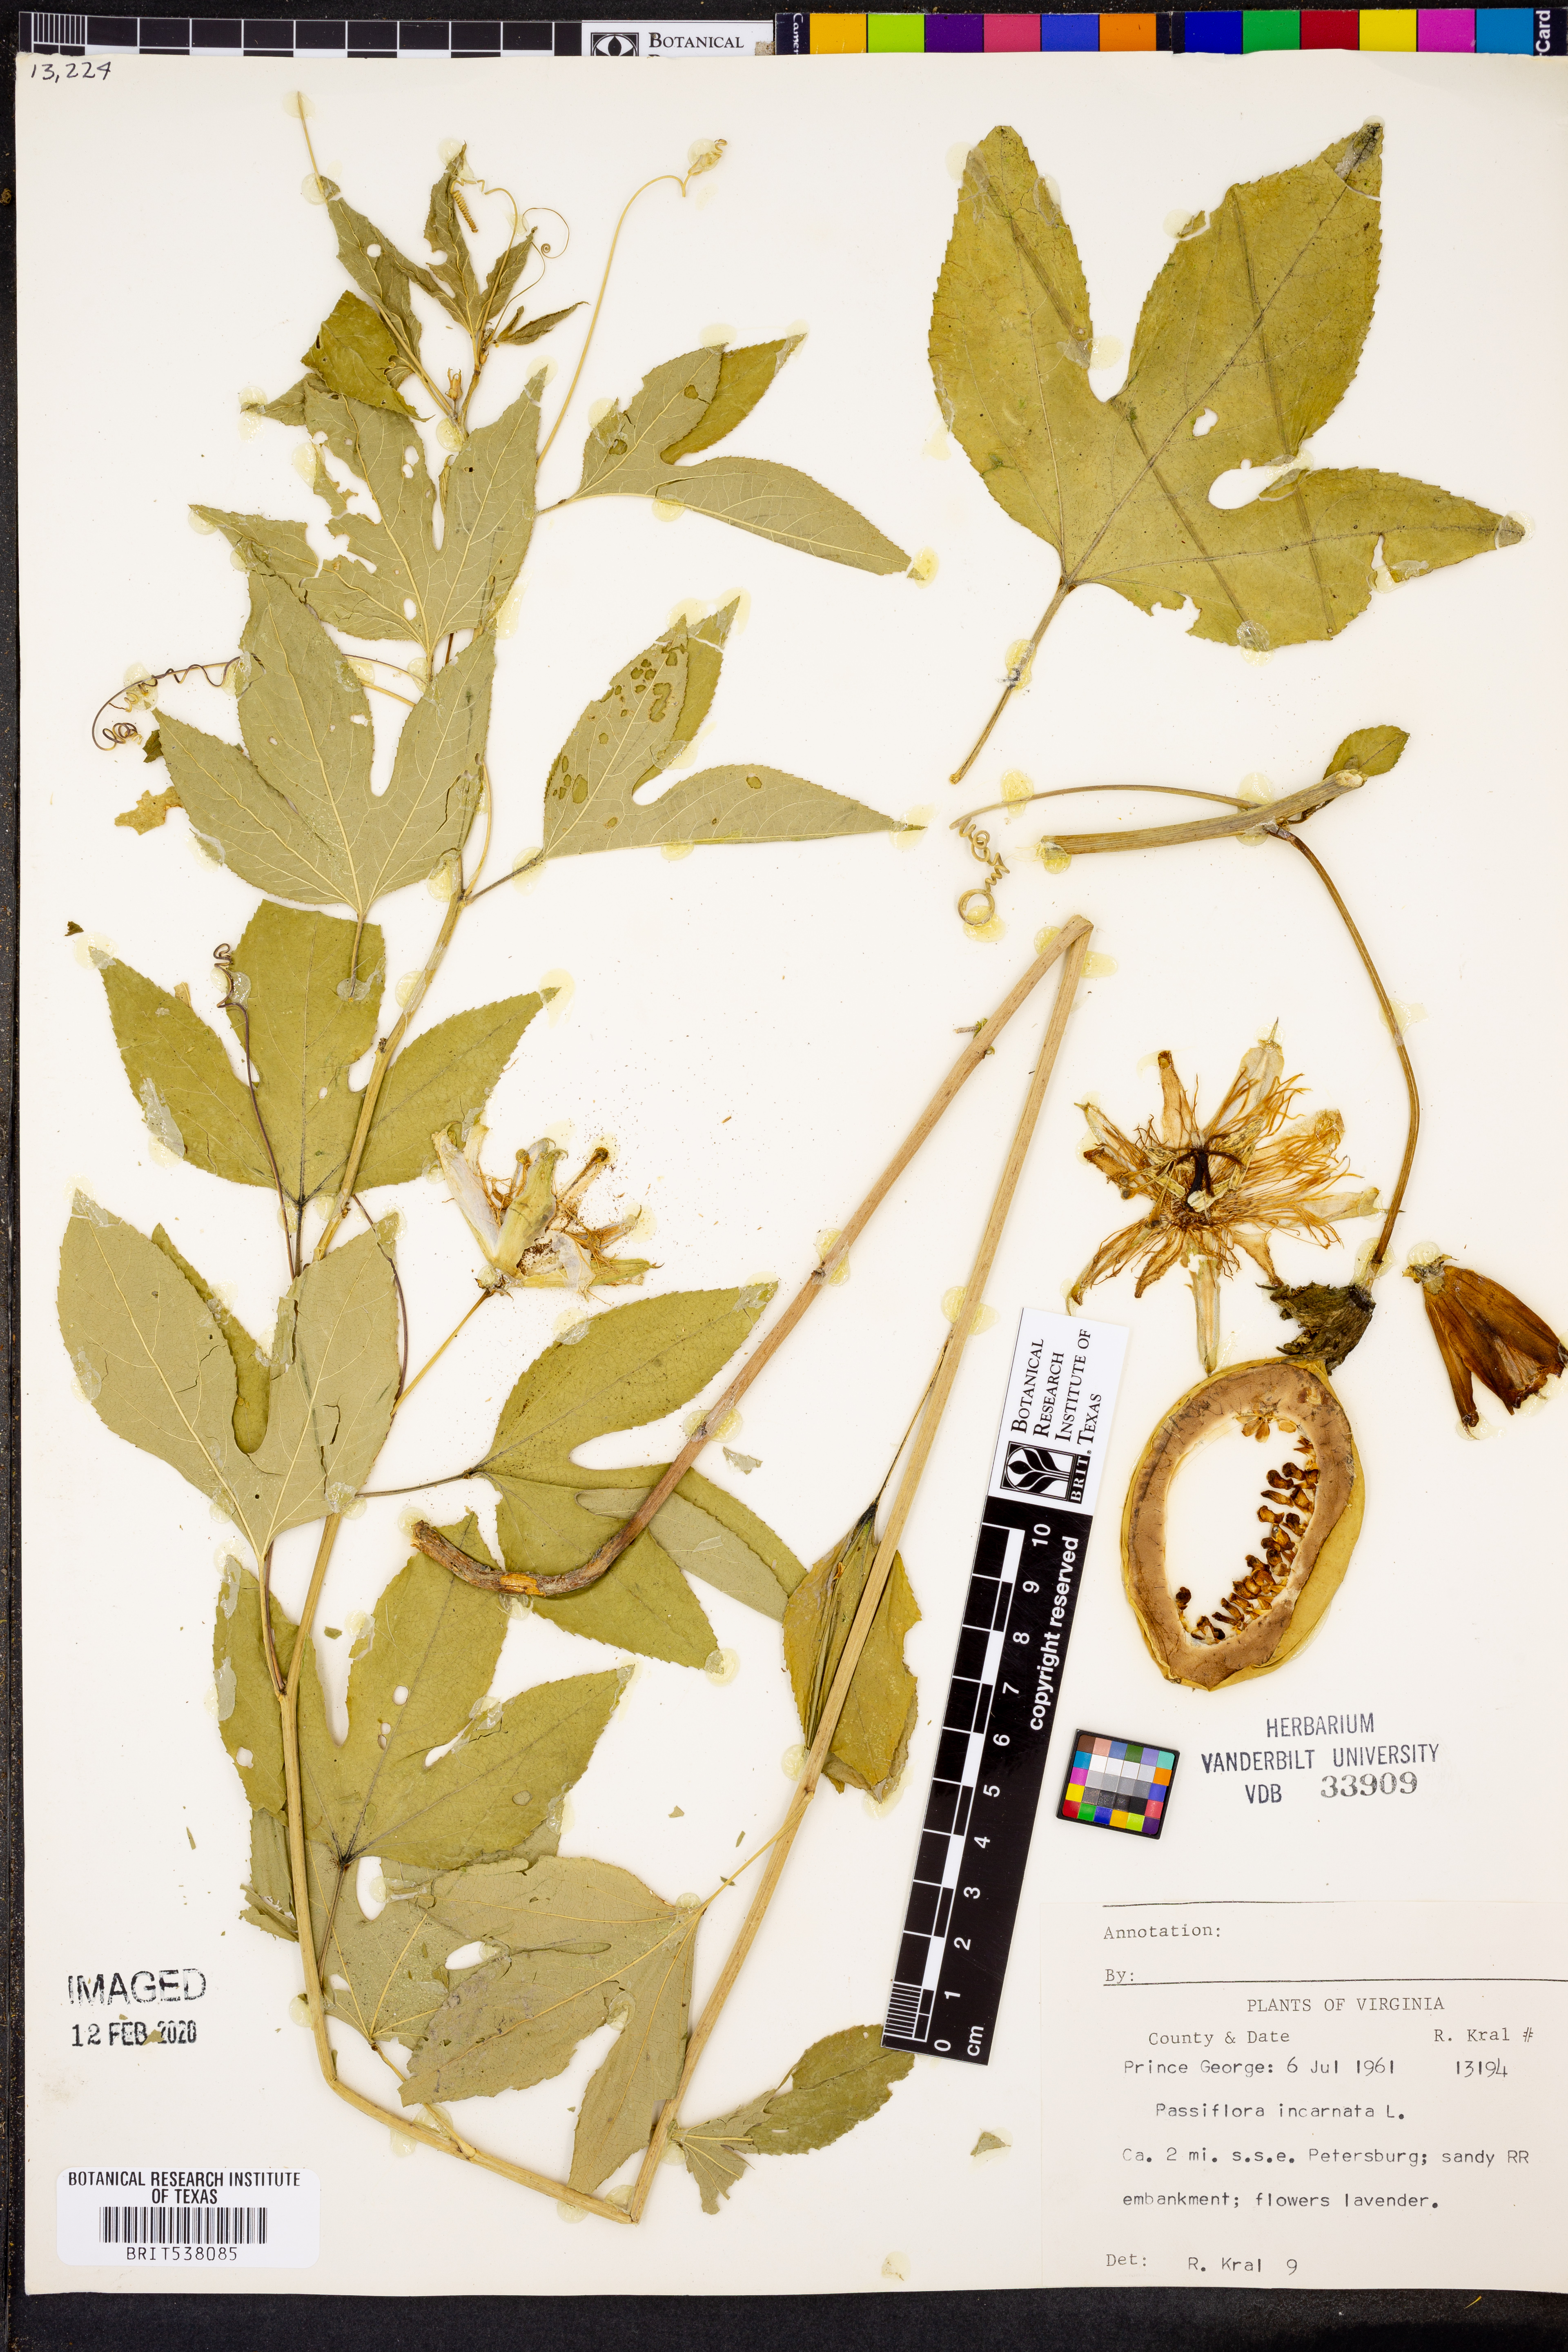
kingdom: Plantae
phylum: Tracheophyta
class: Magnoliopsida
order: Malpighiales
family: Passifloraceae
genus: Passiflora
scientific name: Passiflora incarnata
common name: Apricot-vine
